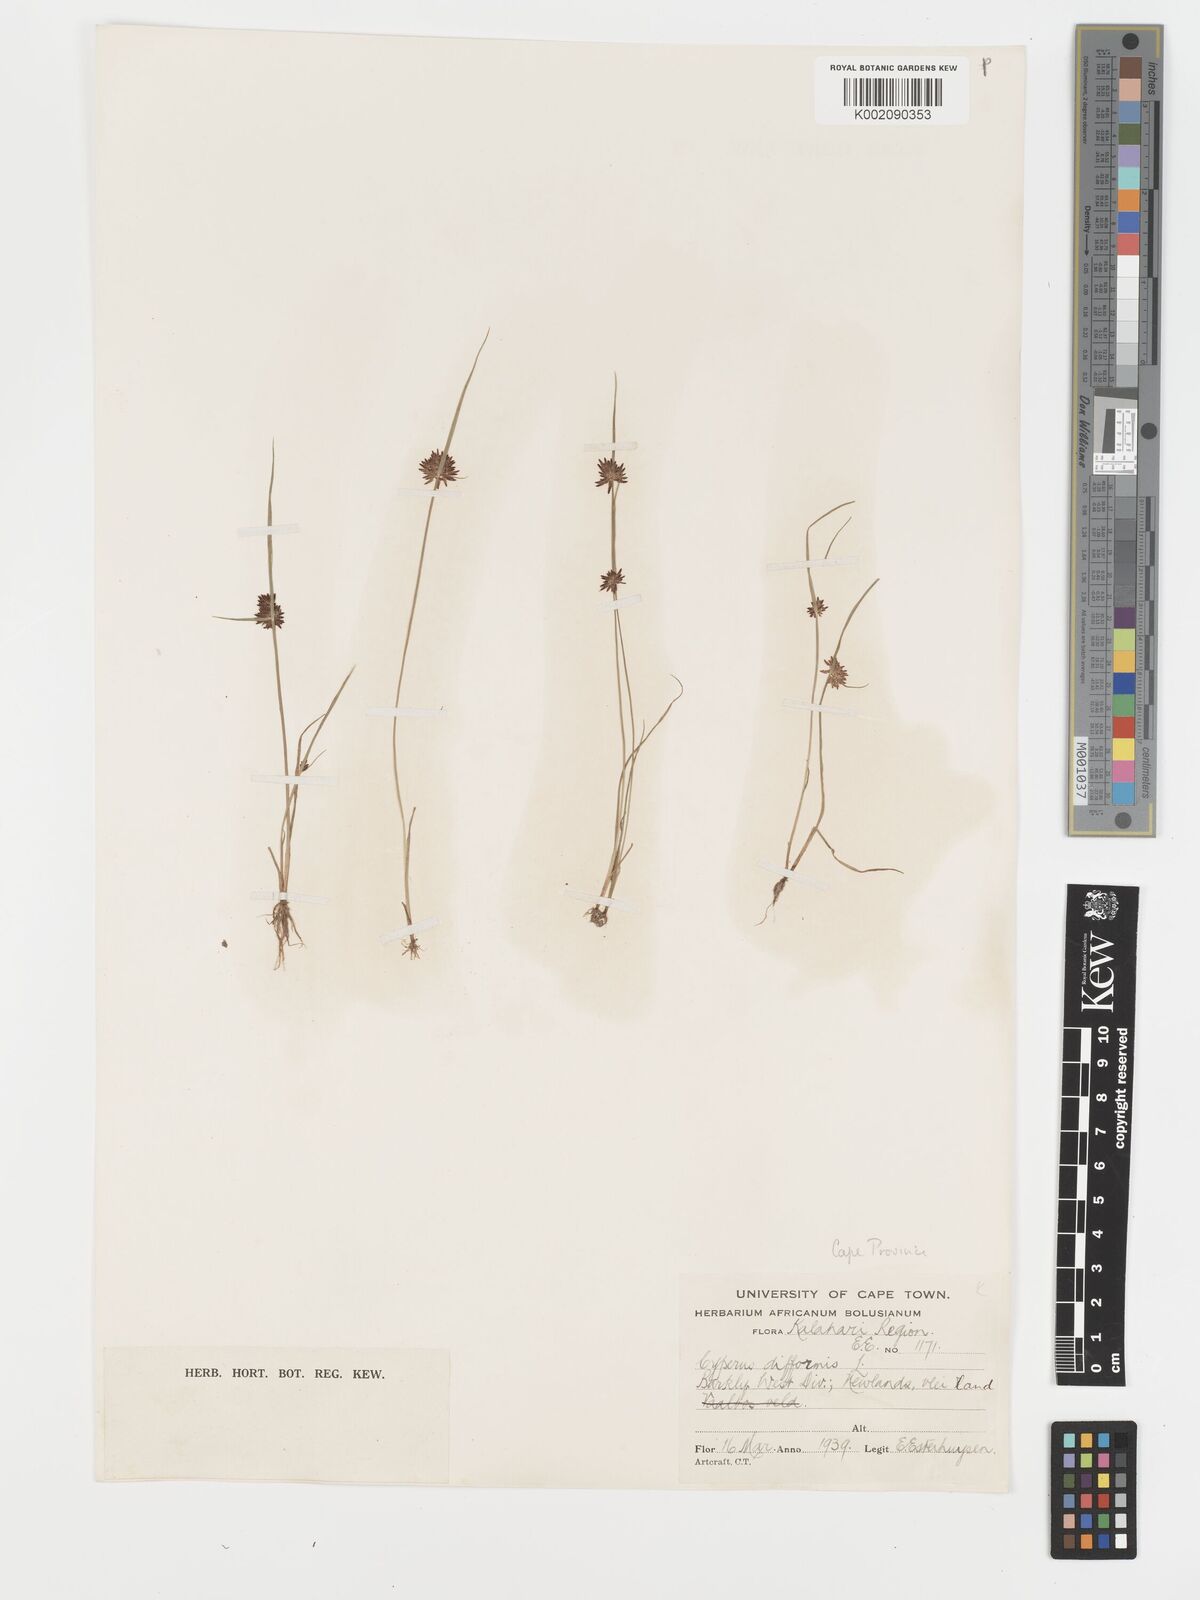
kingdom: Plantae
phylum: Tracheophyta
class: Liliopsida
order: Poales
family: Cyperaceae
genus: Cyperus
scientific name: Cyperus difformis
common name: Variable flatsedge
